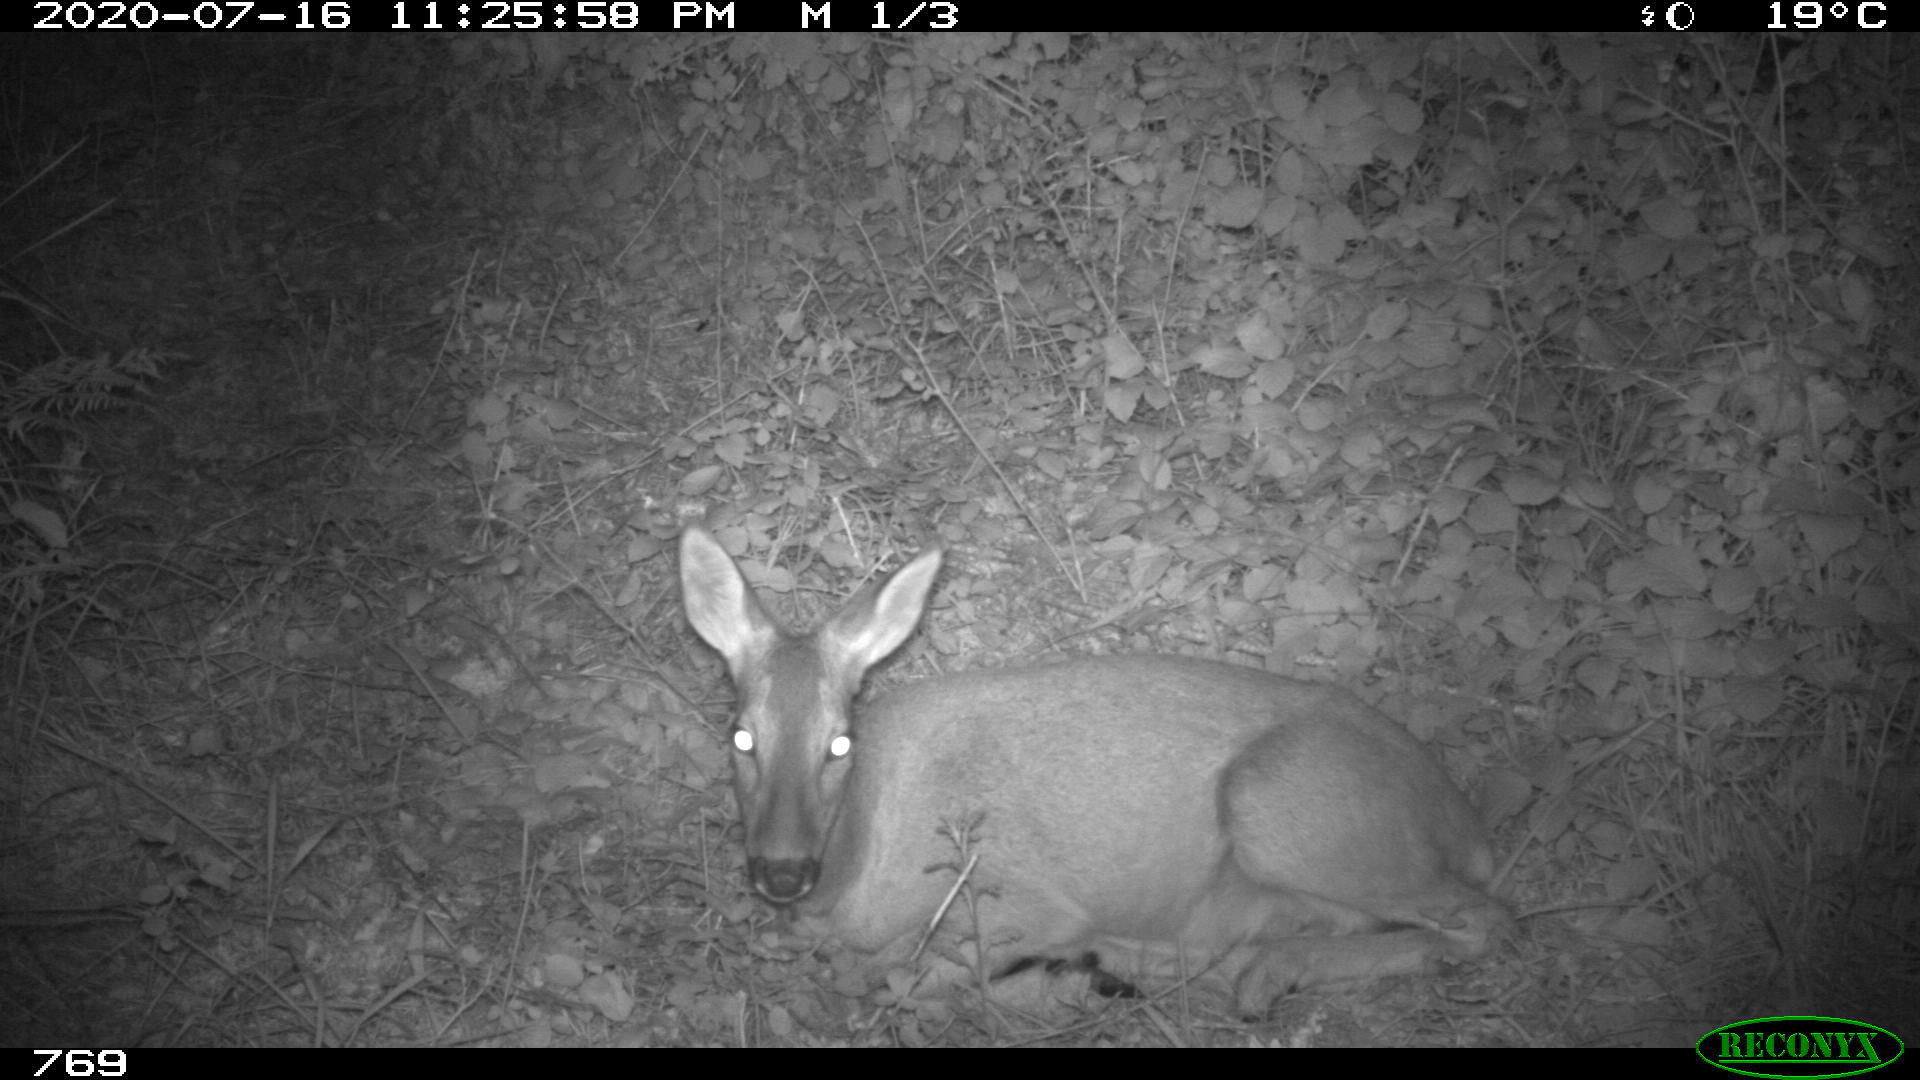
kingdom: Animalia
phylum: Chordata
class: Mammalia
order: Artiodactyla
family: Cervidae
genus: Capreolus
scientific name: Capreolus capreolus
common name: Western roe deer
